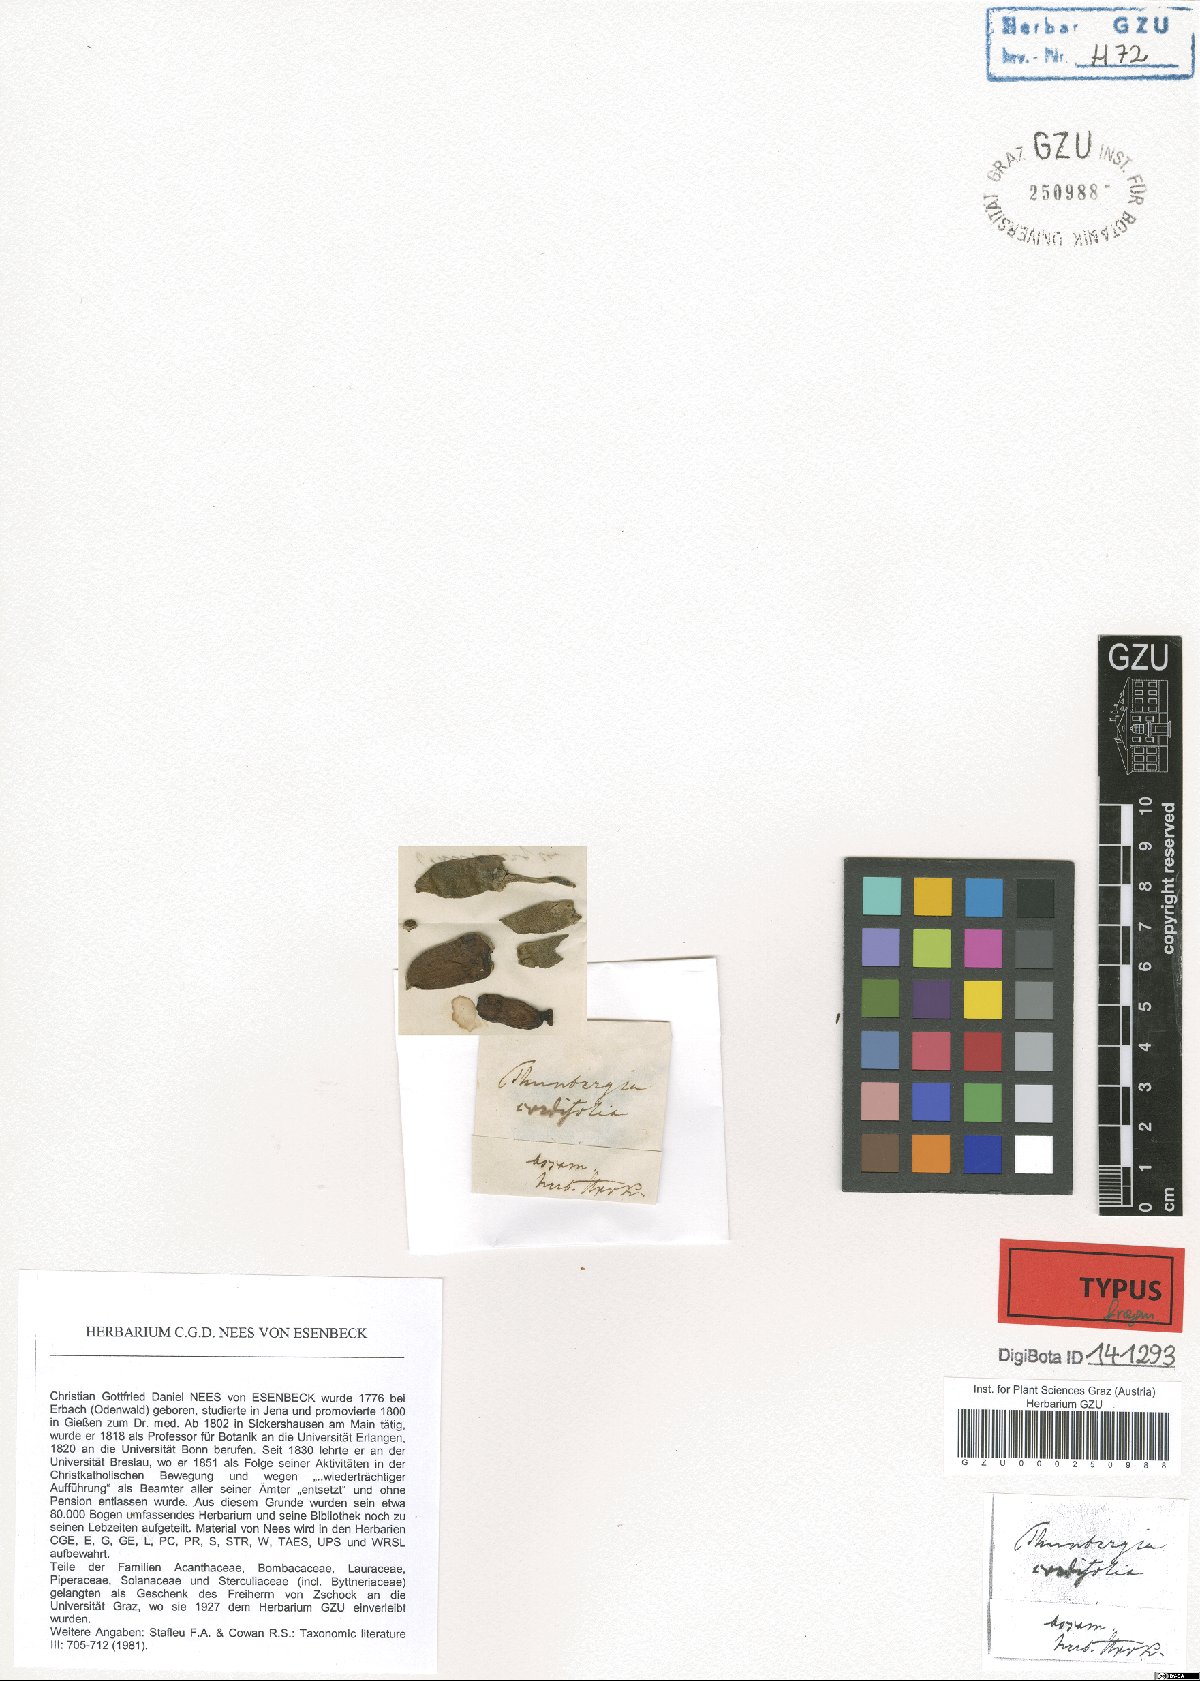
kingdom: Plantae
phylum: Tracheophyta
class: Magnoliopsida
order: Lamiales
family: Acanthaceae
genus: Thunbergia
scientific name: Thunbergia grandiflora
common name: Bengal trumpet
